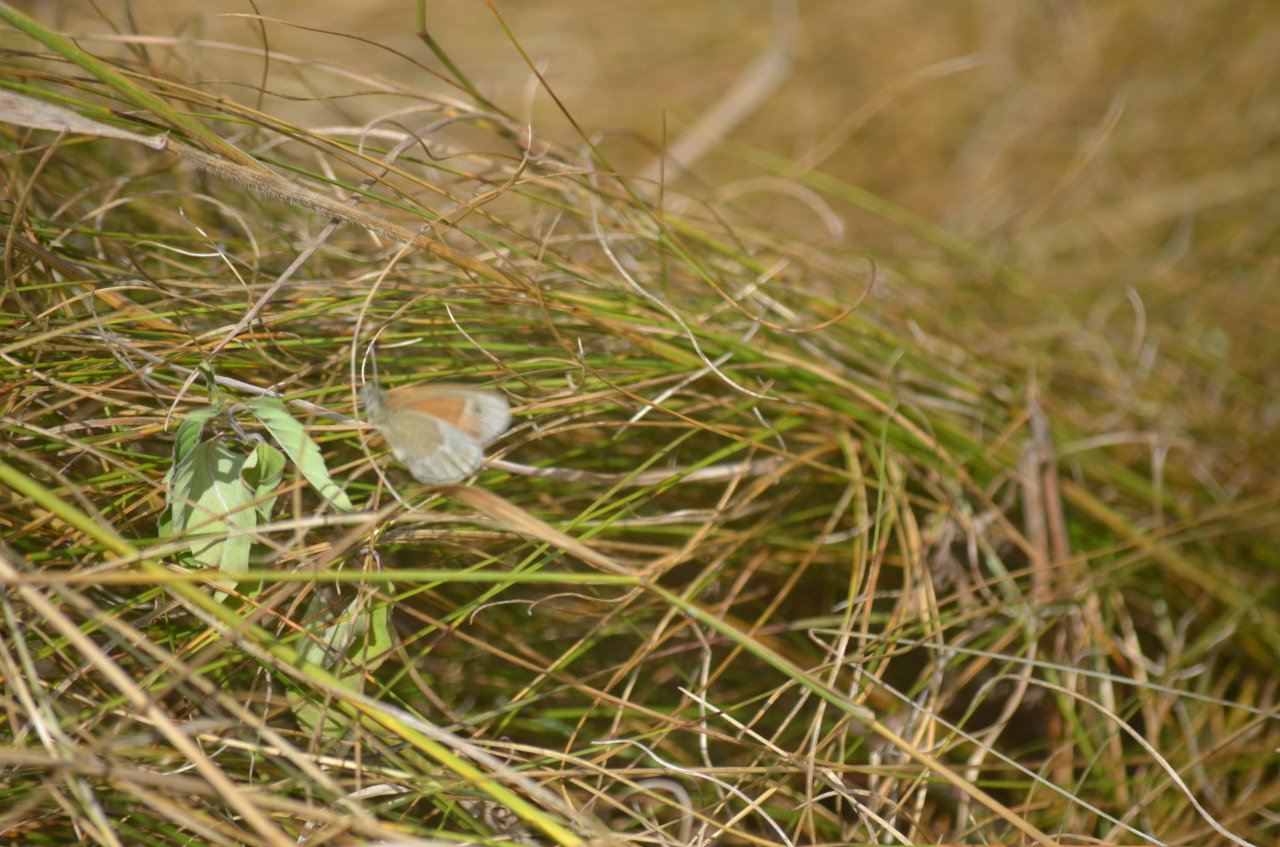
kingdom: Animalia
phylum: Arthropoda
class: Insecta
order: Lepidoptera
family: Nymphalidae
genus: Coenonympha
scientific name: Coenonympha tullia
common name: Large Heath
